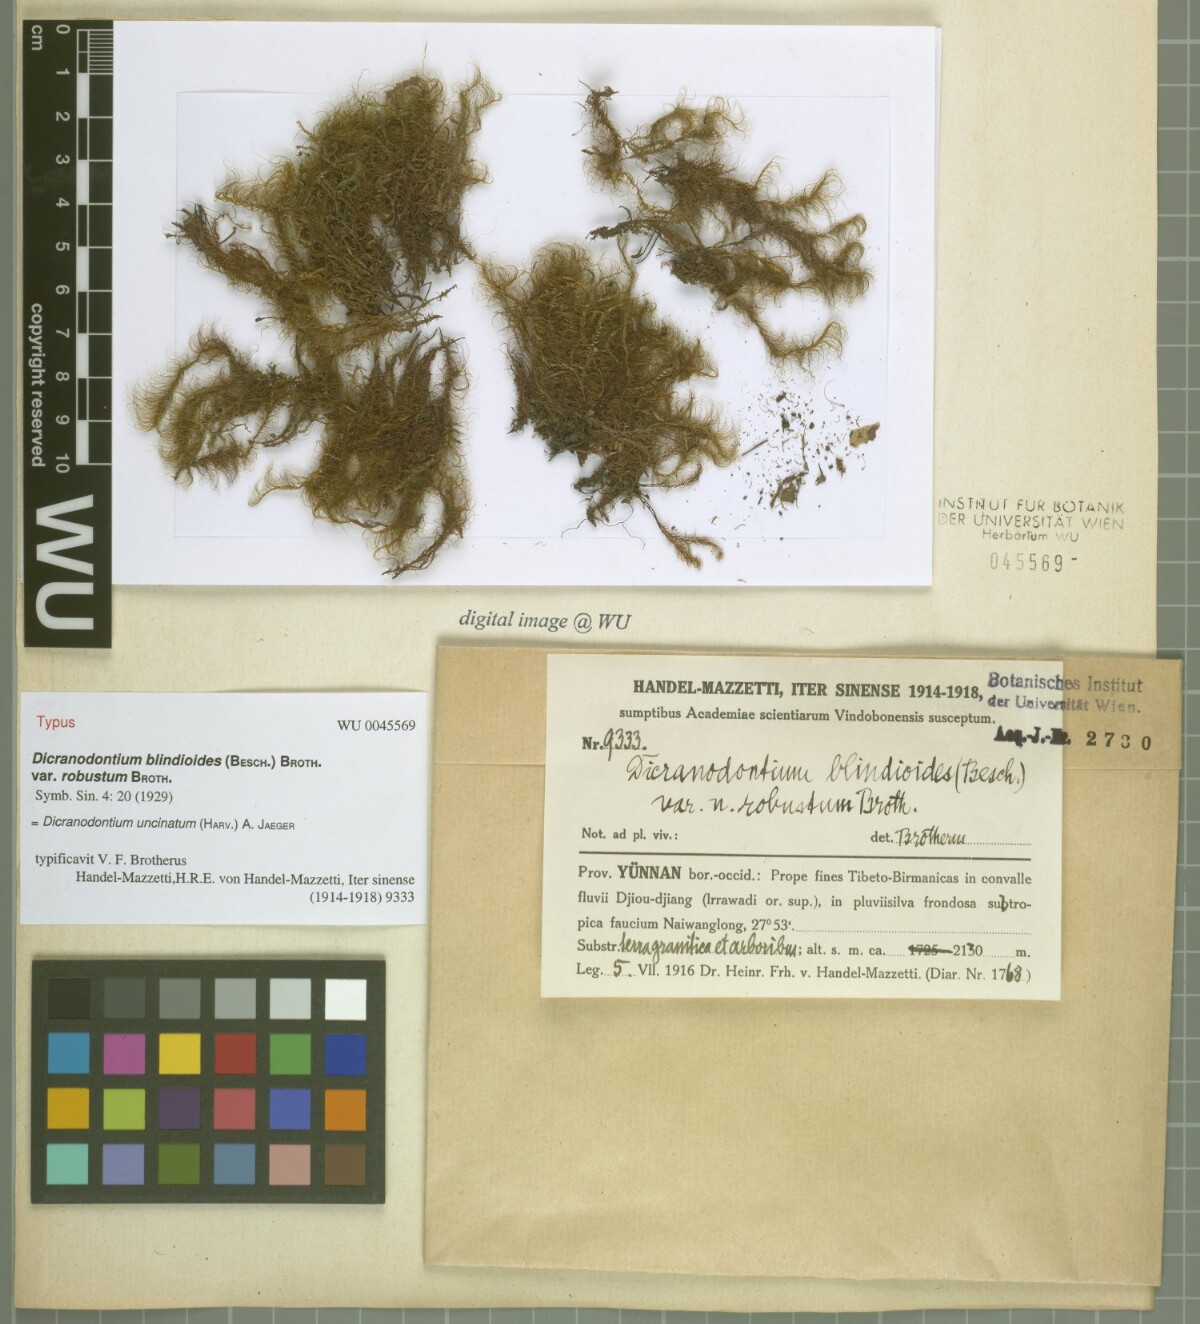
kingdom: Plantae
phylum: Bryophyta
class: Bryopsida
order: Dicranales
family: Leucobryaceae
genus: Dicranodontium
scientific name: Dicranodontium uncinatum
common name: Curve-leaved bow-moss
